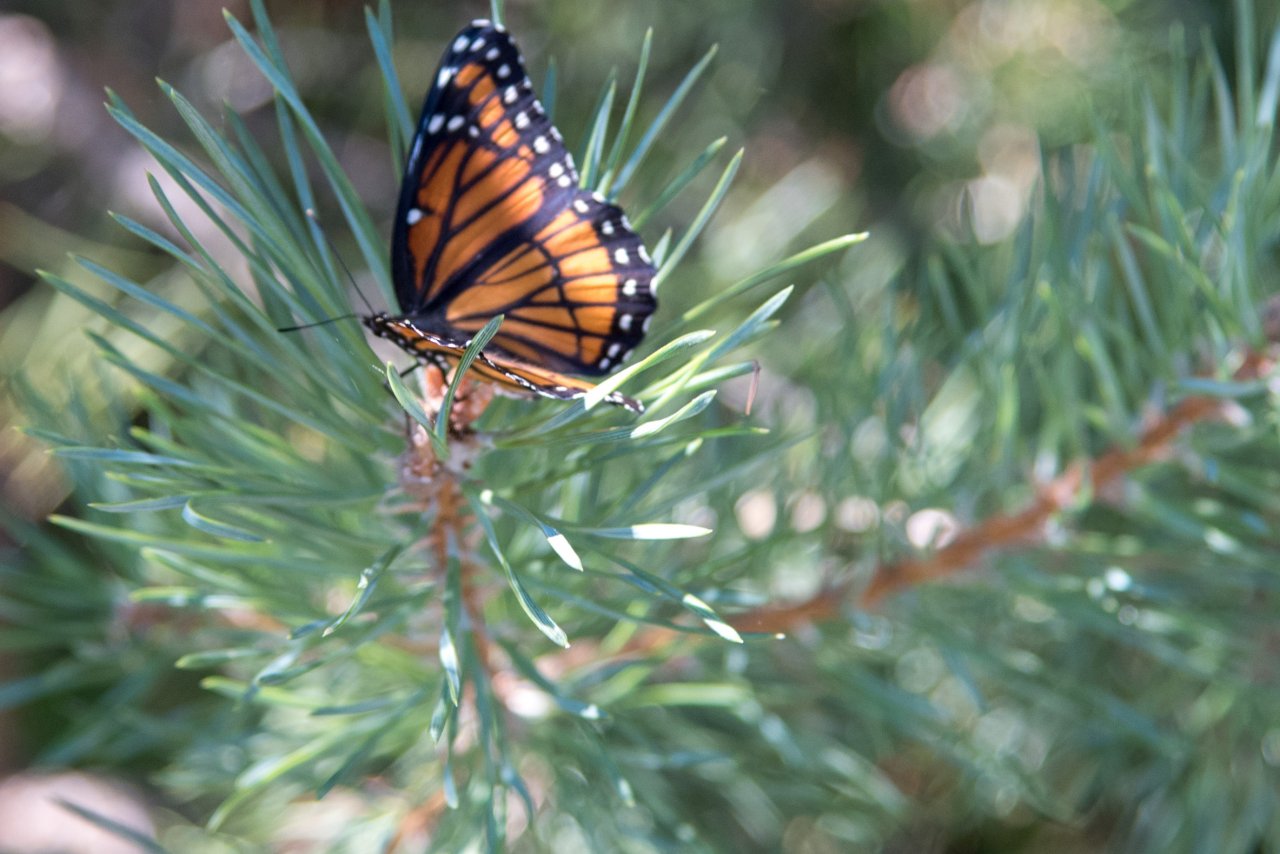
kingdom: Animalia
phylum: Arthropoda
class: Insecta
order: Lepidoptera
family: Nymphalidae
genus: Limenitis
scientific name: Limenitis archippus
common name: Viceroy
